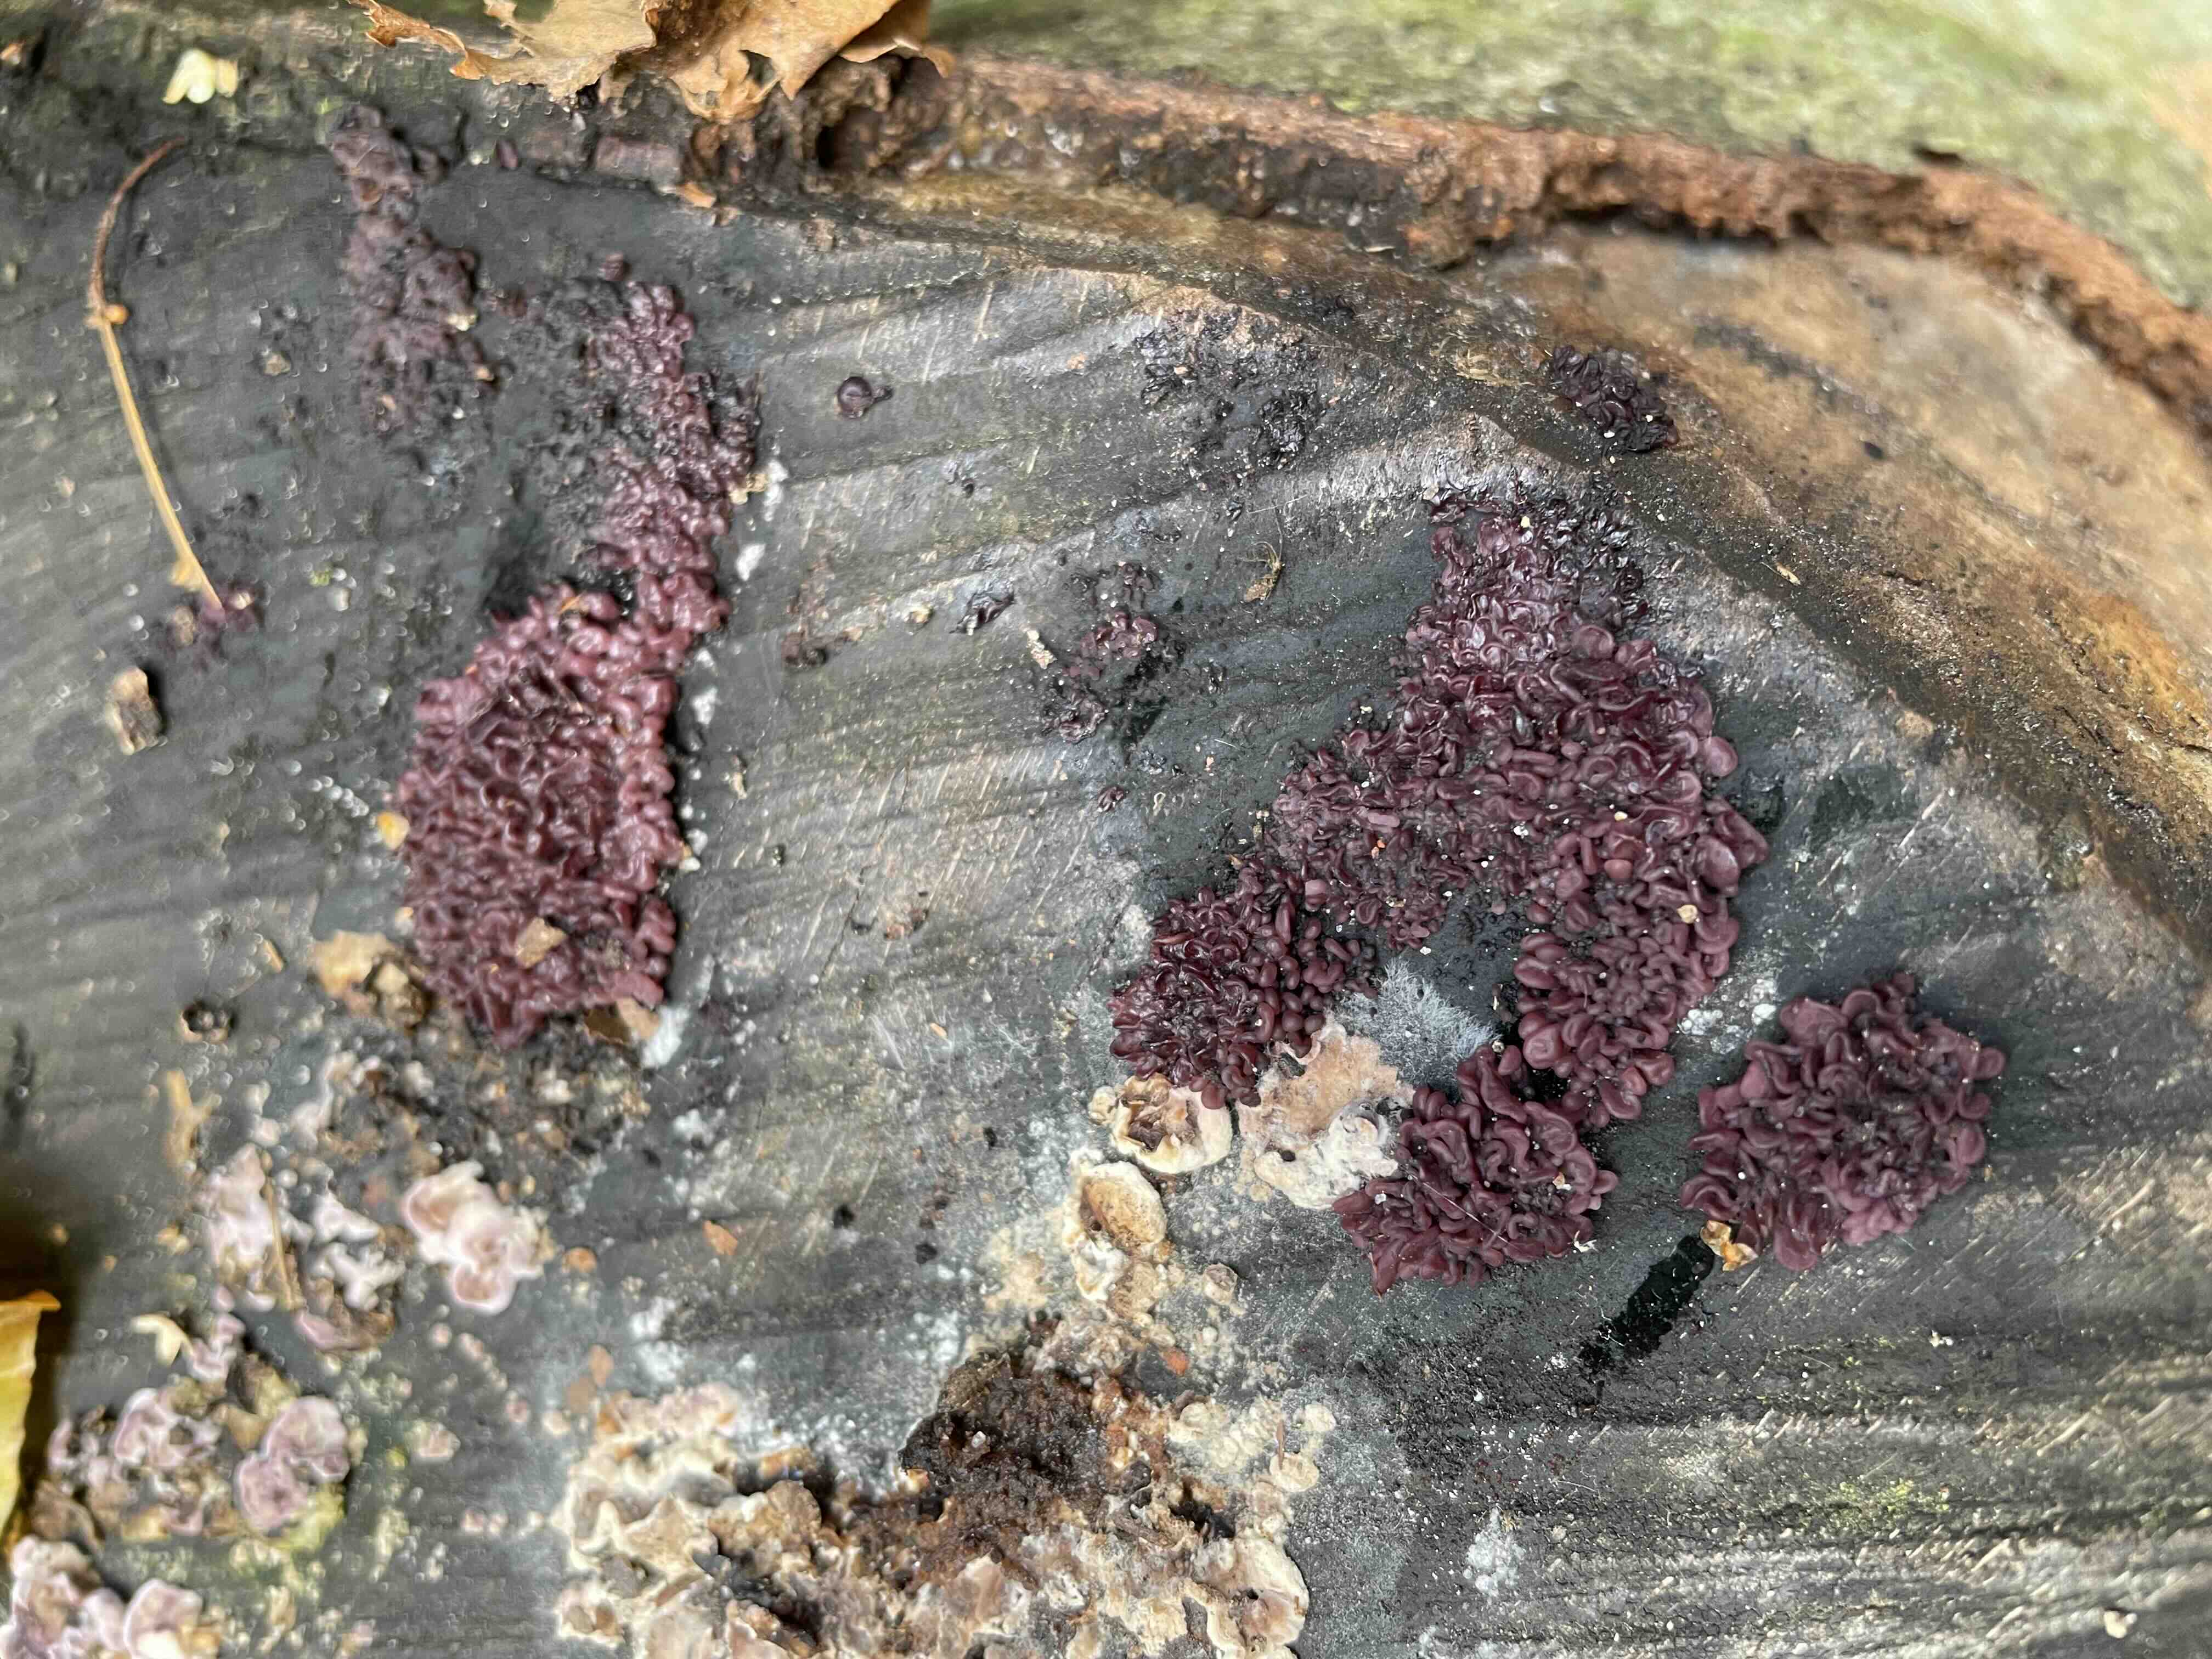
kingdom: Fungi
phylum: Ascomycota
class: Leotiomycetes
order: Helotiales
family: Gelatinodiscaceae
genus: Ascocoryne
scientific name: Ascocoryne sarcoides
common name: rødlilla sejskive
